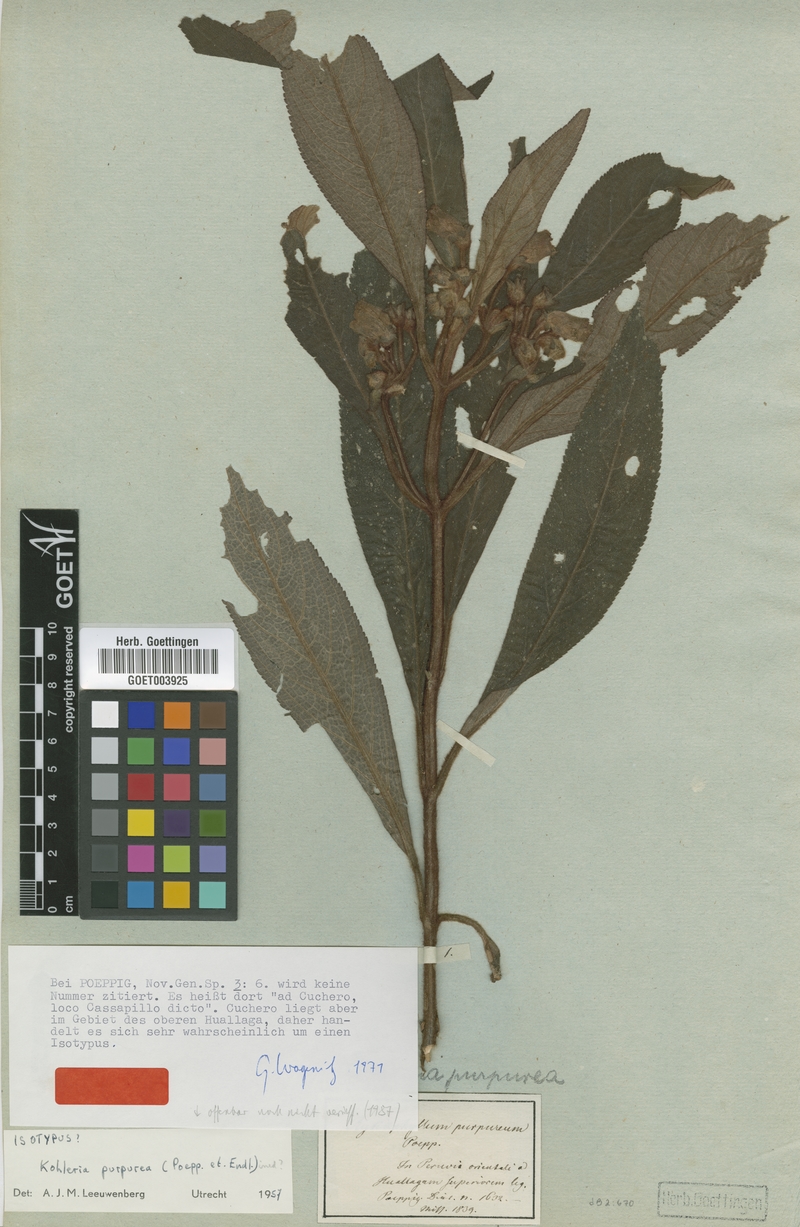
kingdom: Plantae
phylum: Tracheophyta
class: Magnoliopsida
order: Lamiales
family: Gesneriaceae
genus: Kohleria
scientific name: Kohleria
